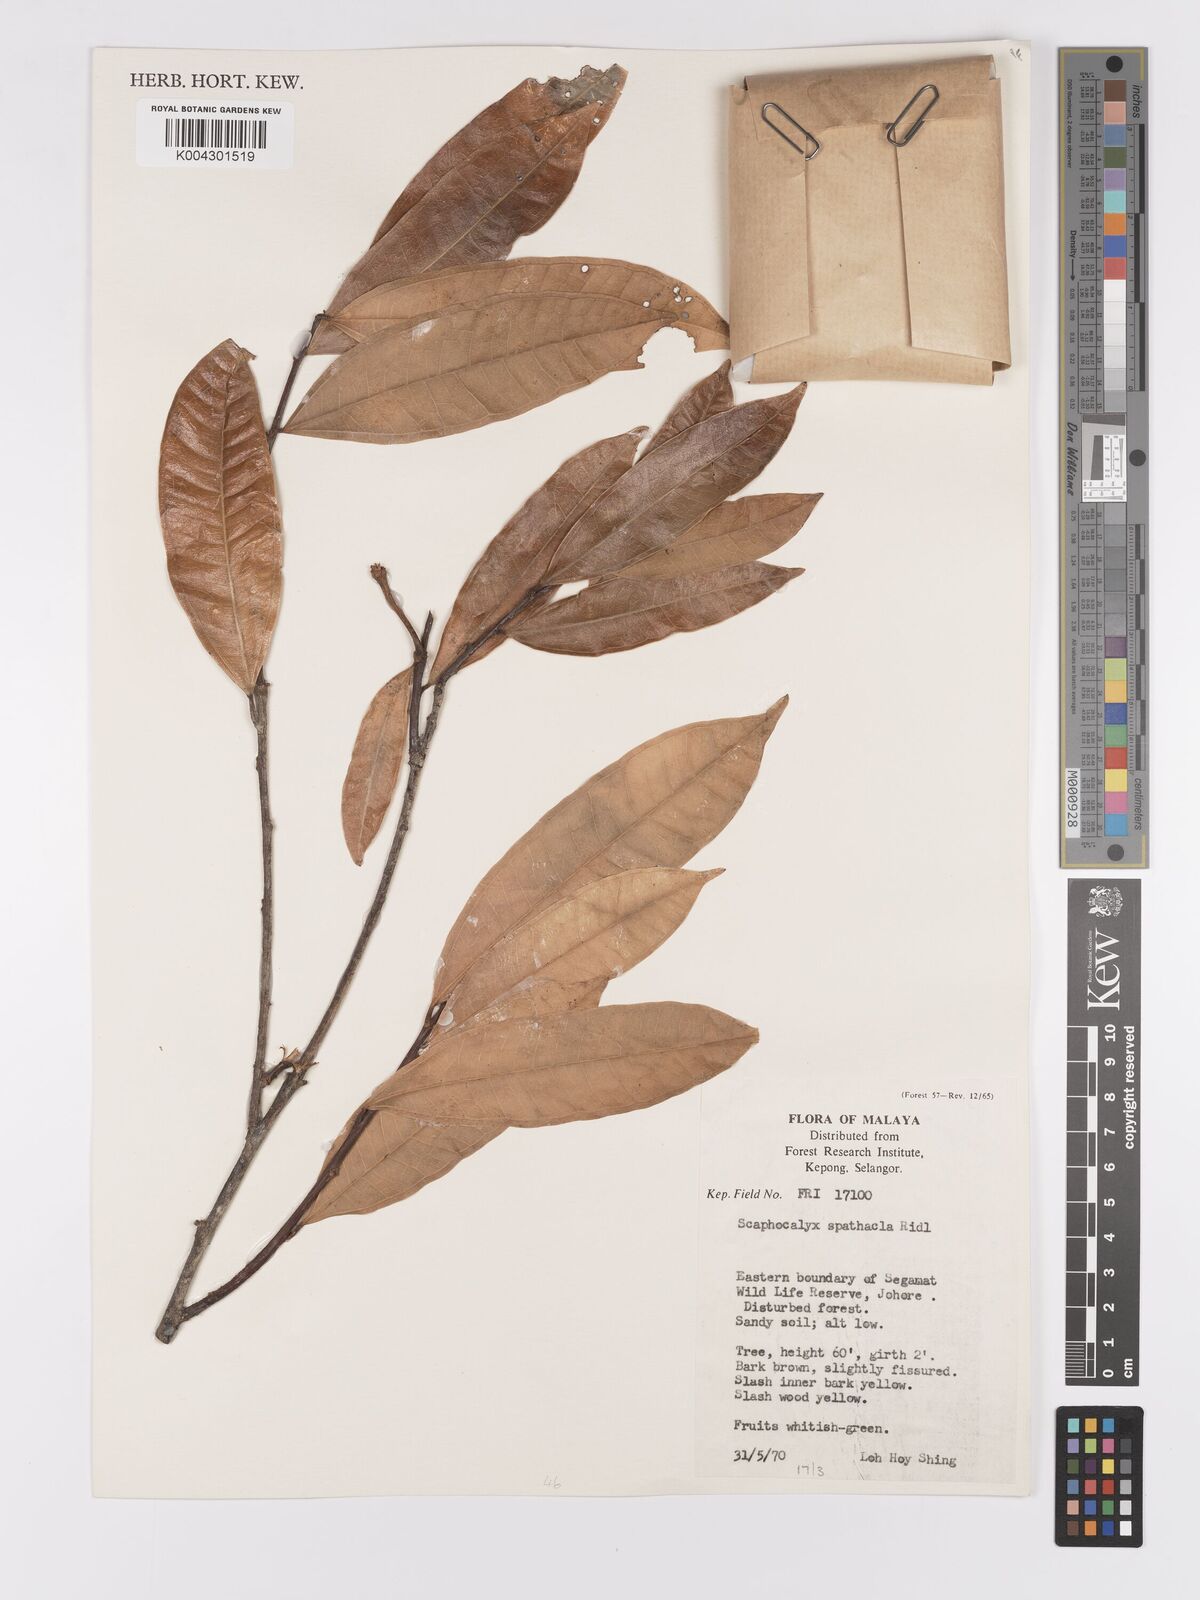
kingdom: Plantae
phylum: Tracheophyta
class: Magnoliopsida
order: Malpighiales
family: Achariaceae
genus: Scaphocalyx
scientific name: Scaphocalyx spathacea
